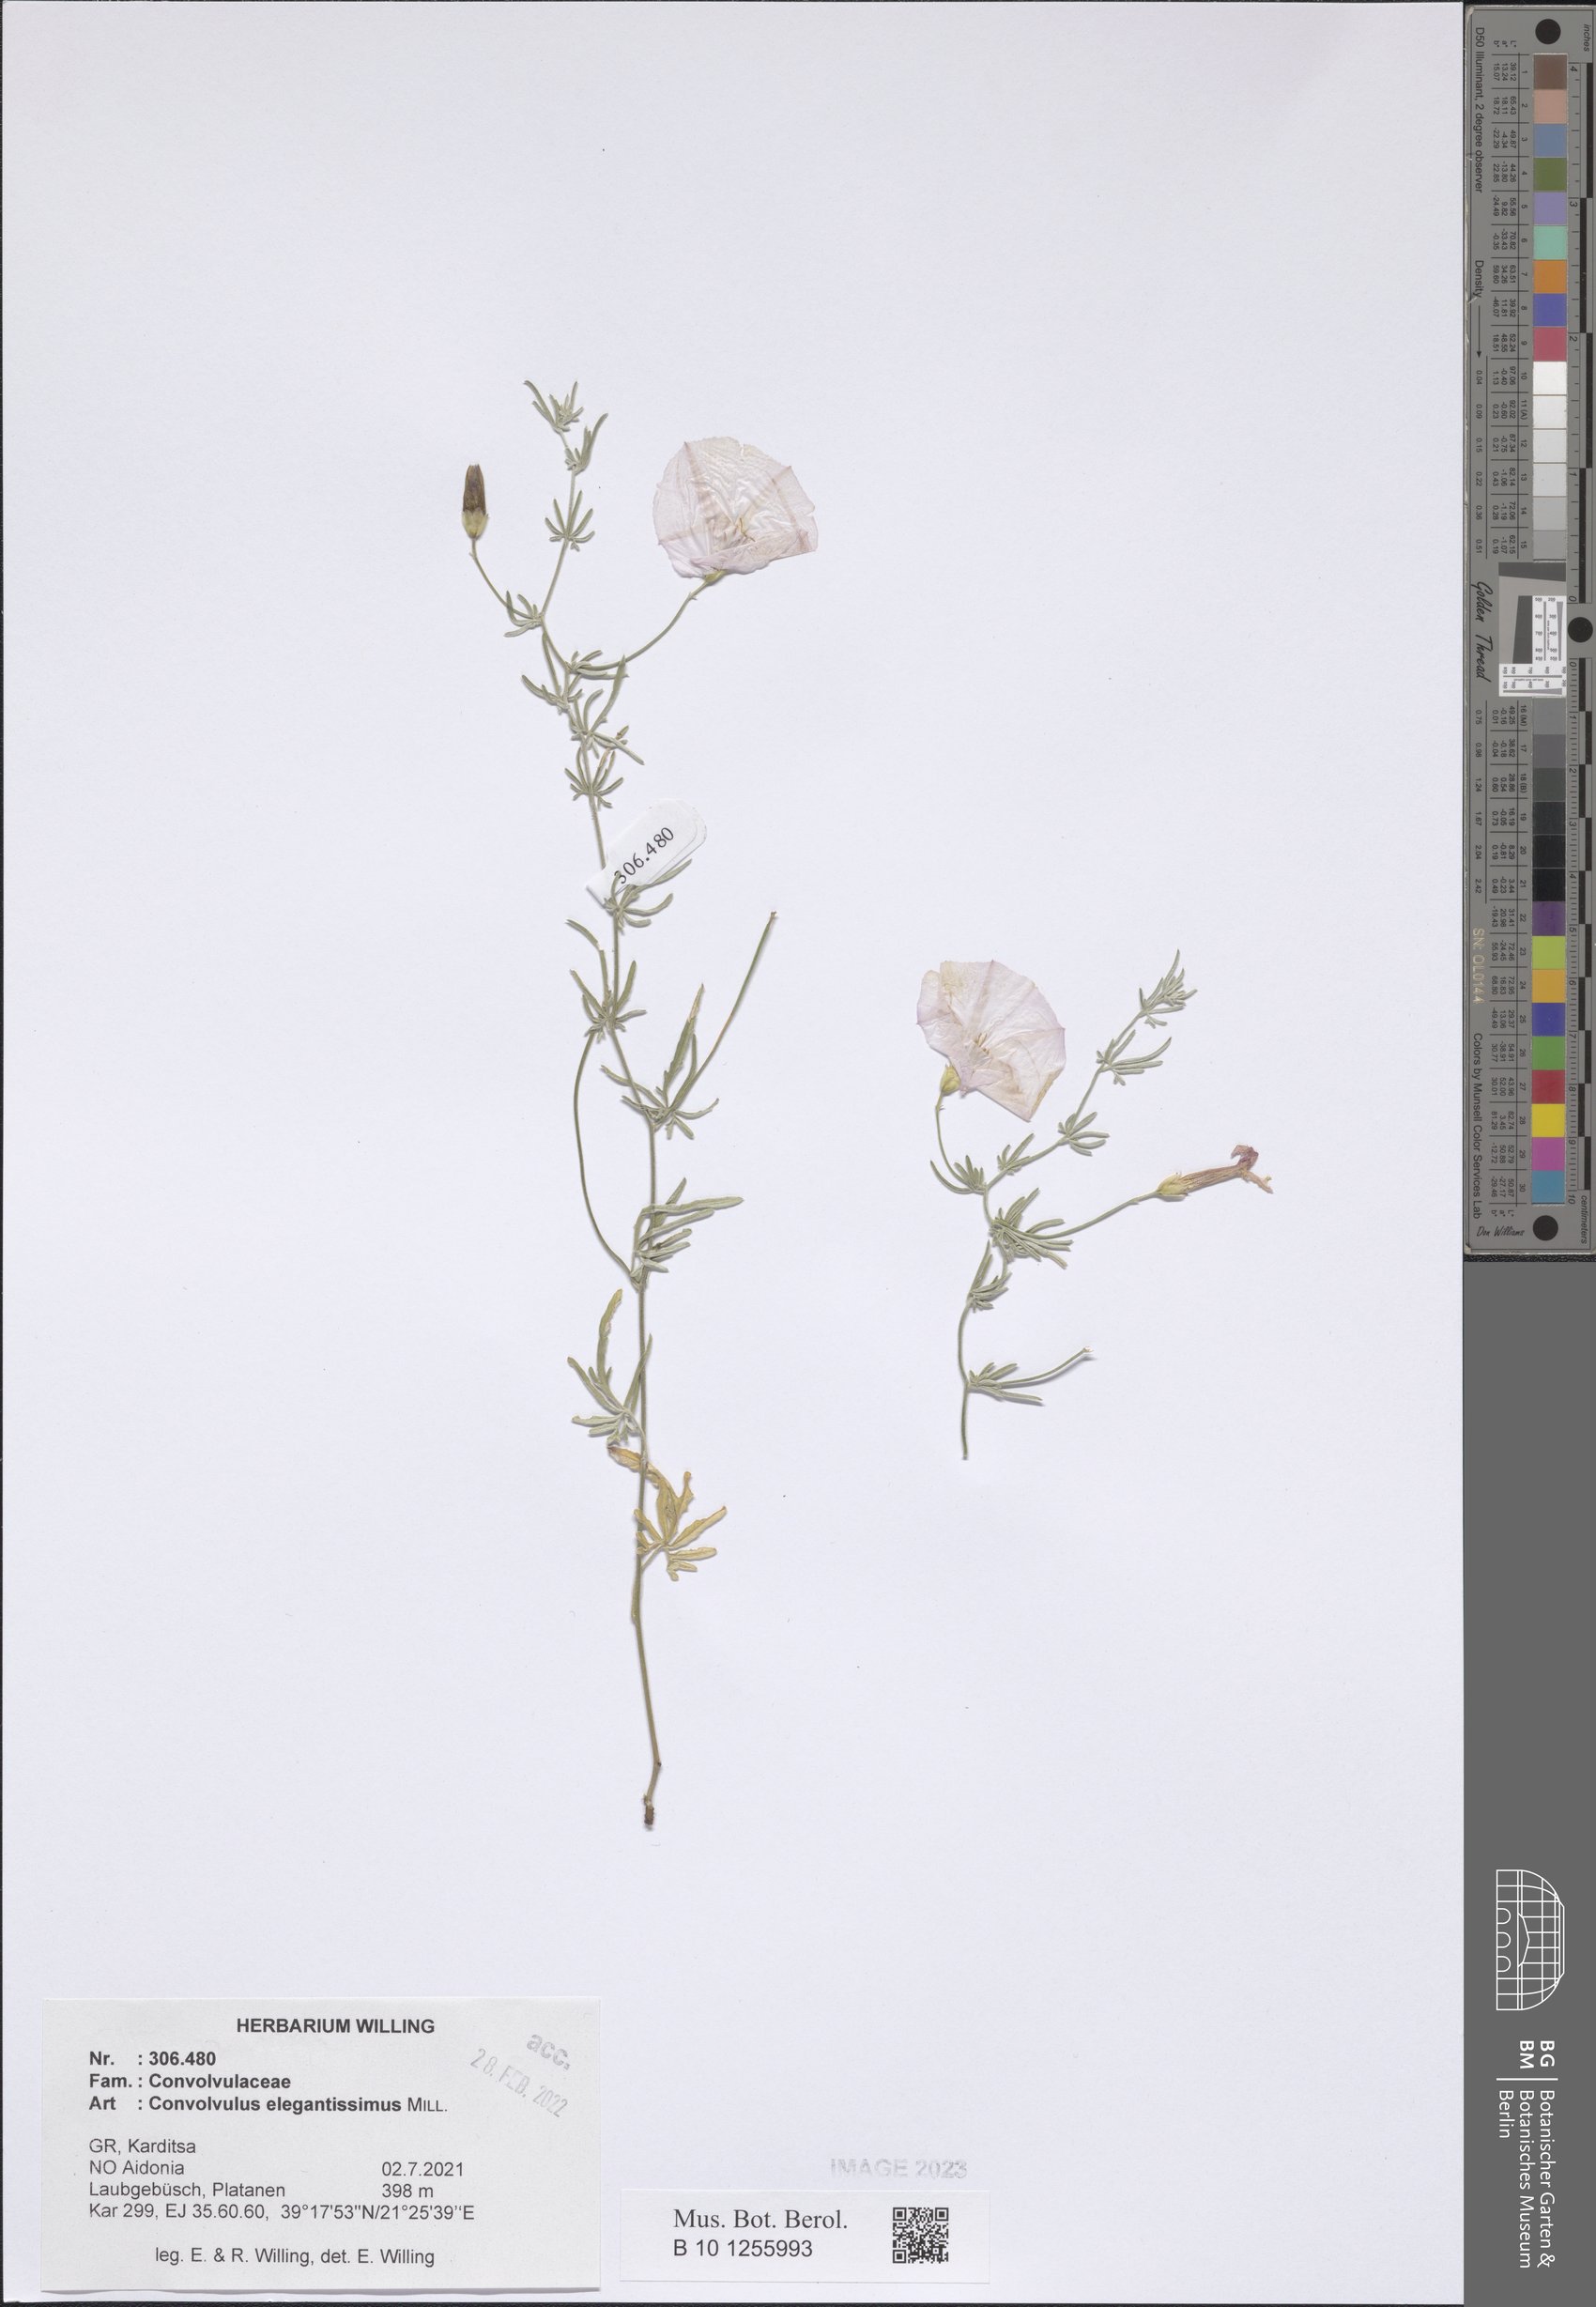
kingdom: Plantae
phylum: Tracheophyta
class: Magnoliopsida
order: Solanales
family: Convolvulaceae
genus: Convolvulus
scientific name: Convolvulus elegantissimus
